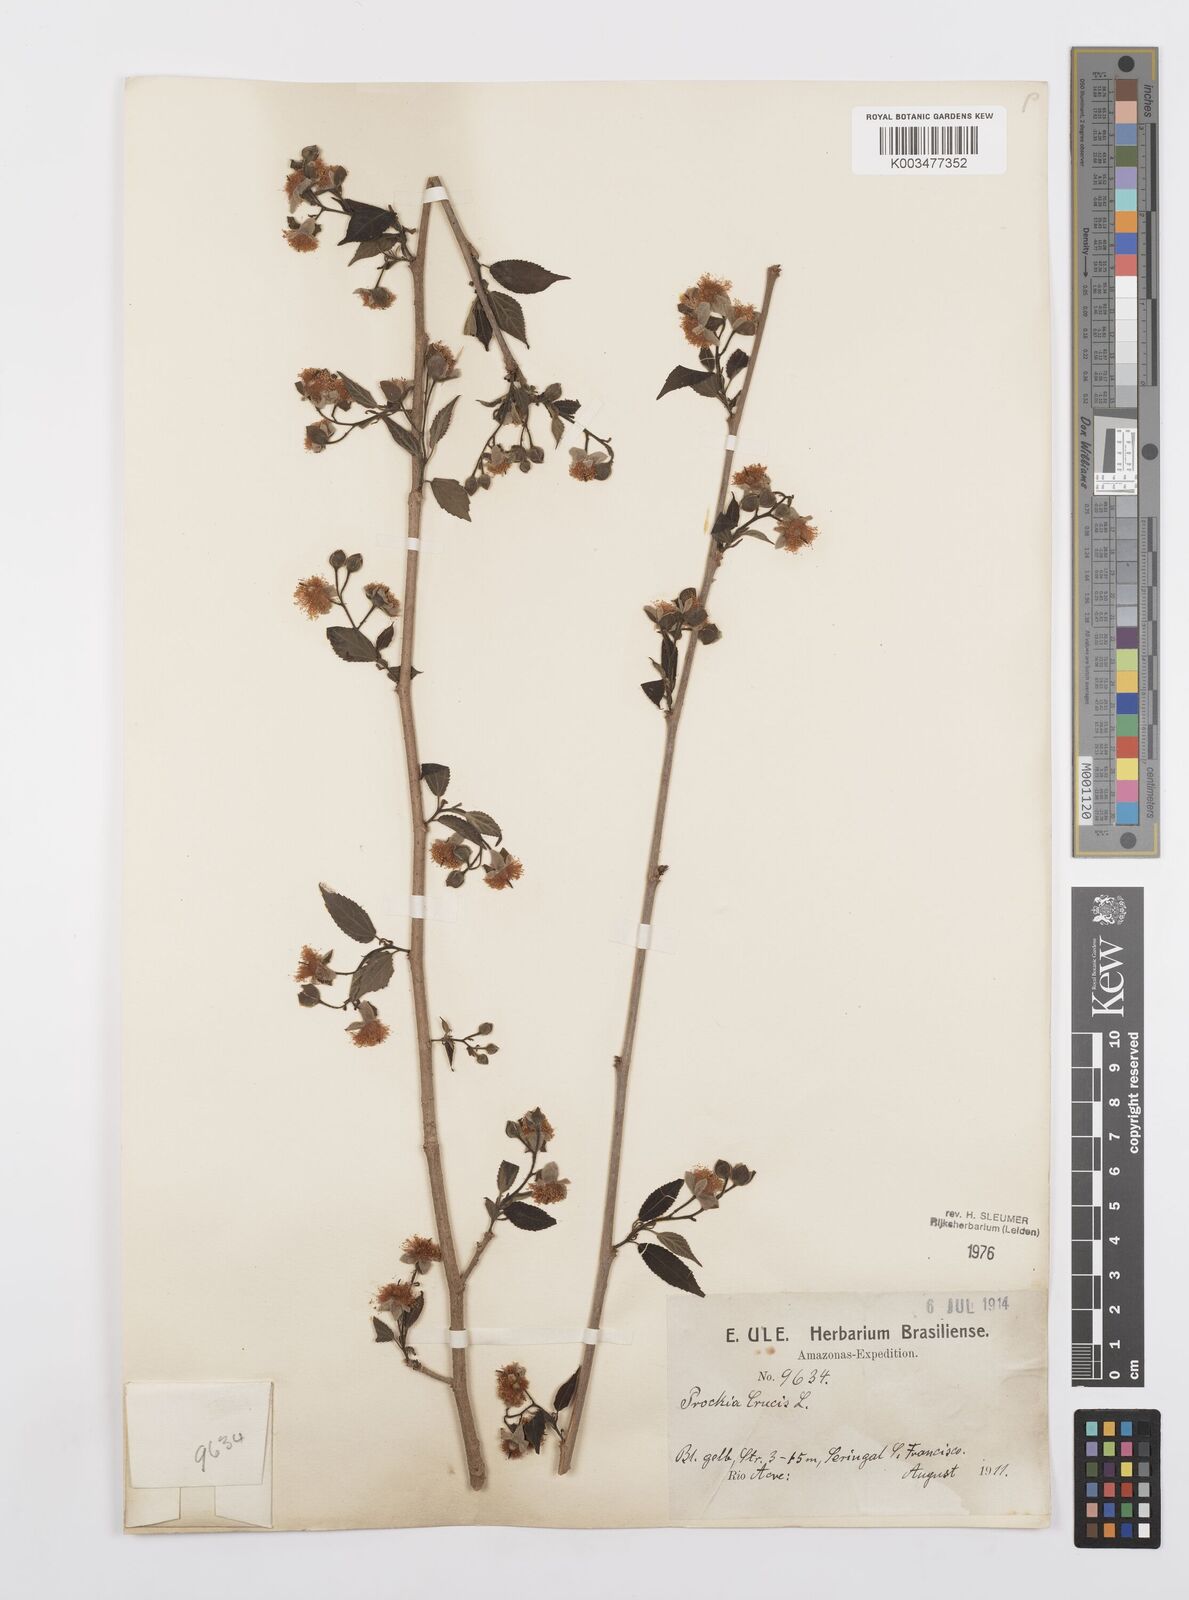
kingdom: Plantae
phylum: Tracheophyta
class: Magnoliopsida
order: Malpighiales
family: Salicaceae
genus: Prockia
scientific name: Prockia crucis
